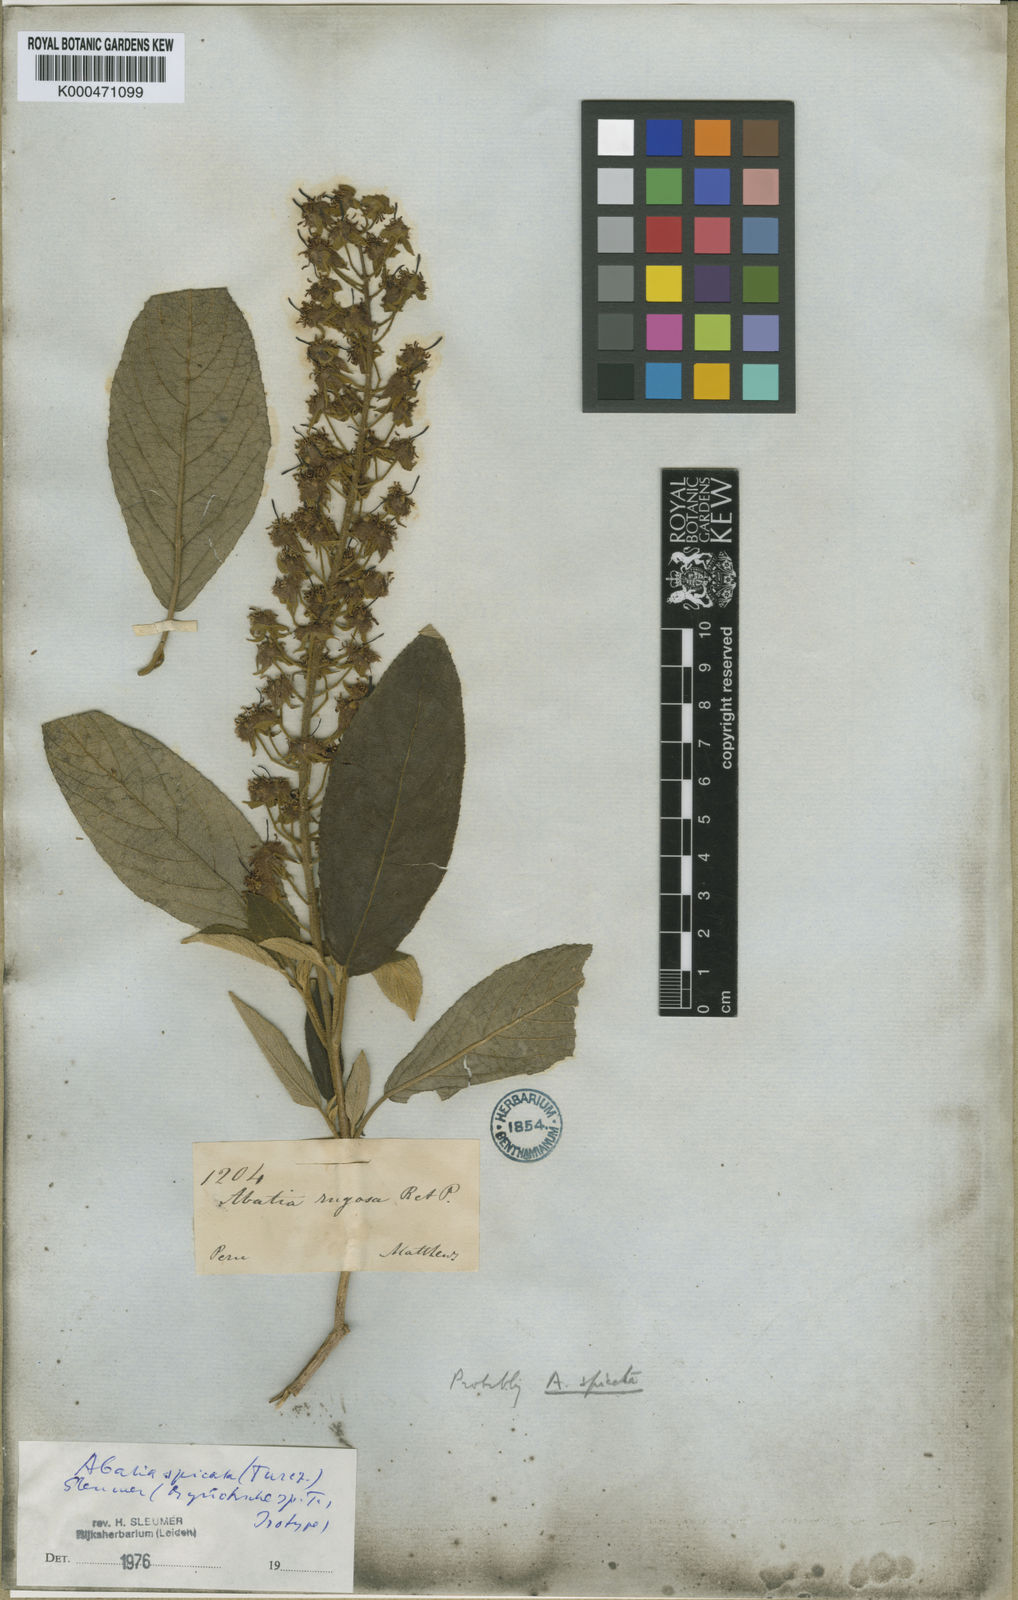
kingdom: Plantae
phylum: Tracheophyta
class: Magnoliopsida
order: Malpighiales
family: Salicaceae
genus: Abatia
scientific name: Abatia spicata
